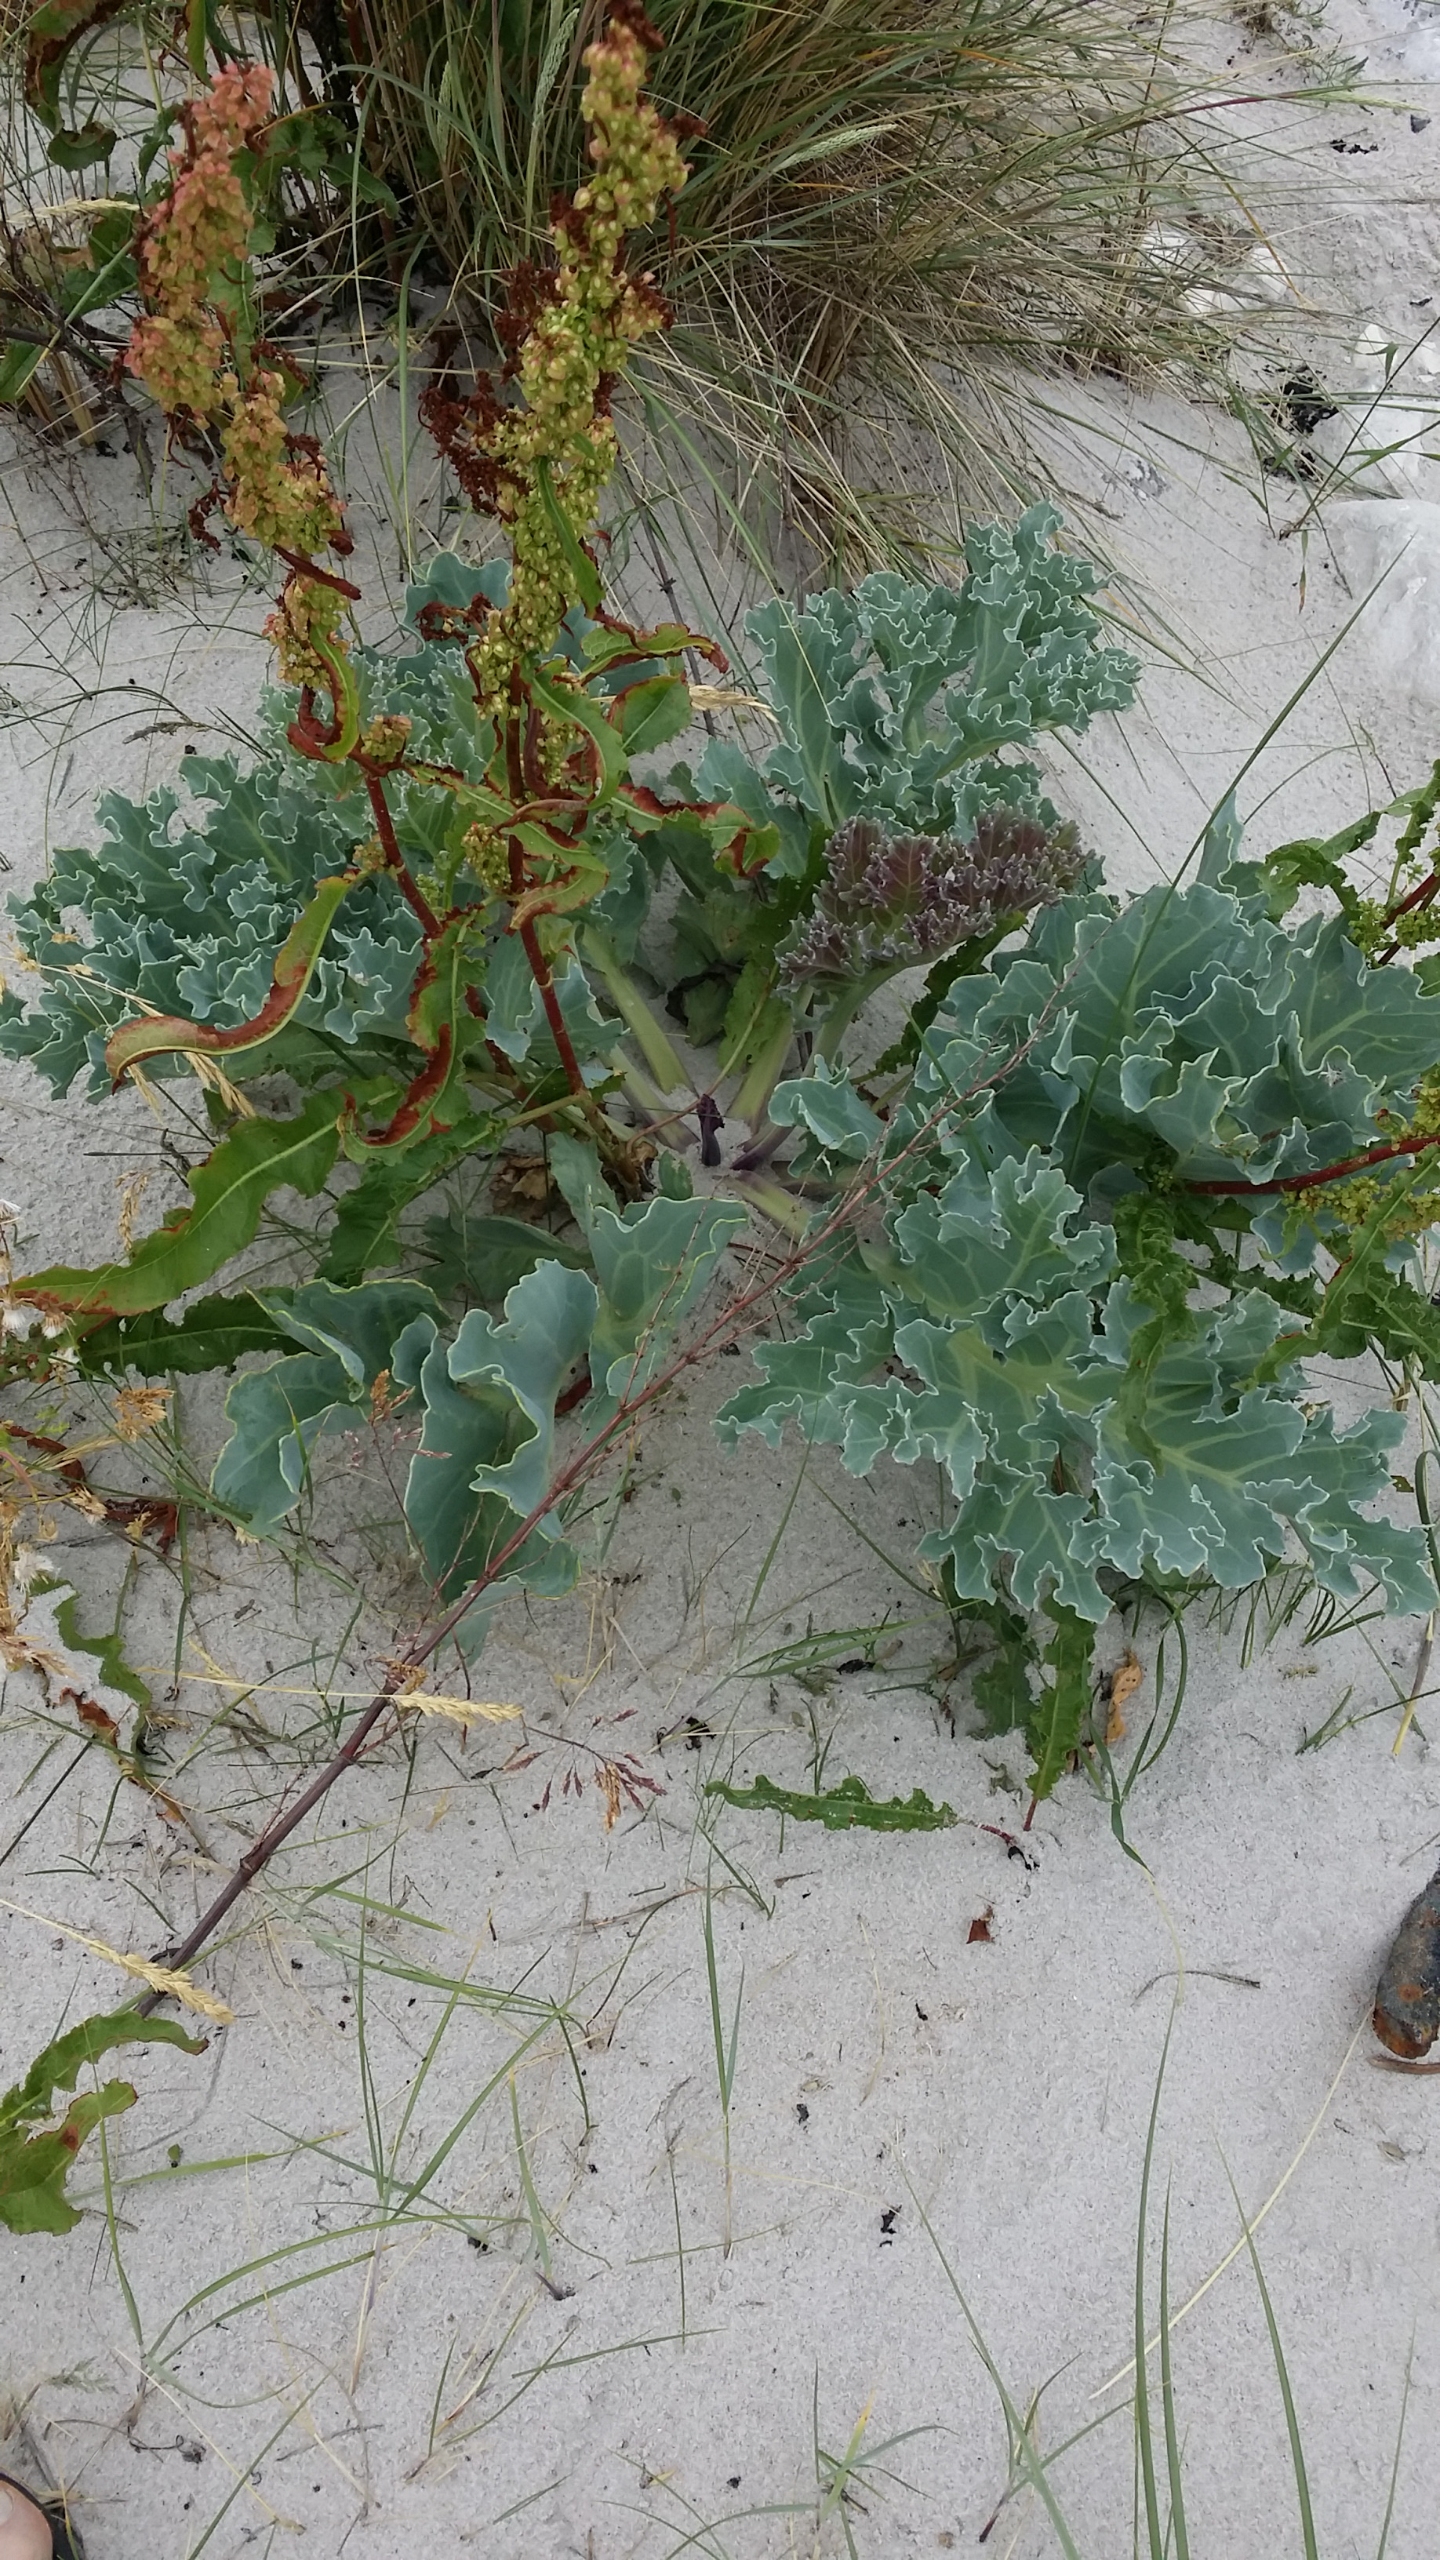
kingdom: Plantae
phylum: Tracheophyta
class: Magnoliopsida
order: Brassicales
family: Brassicaceae
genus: Crambe
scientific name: Crambe maritima
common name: Strandkål
